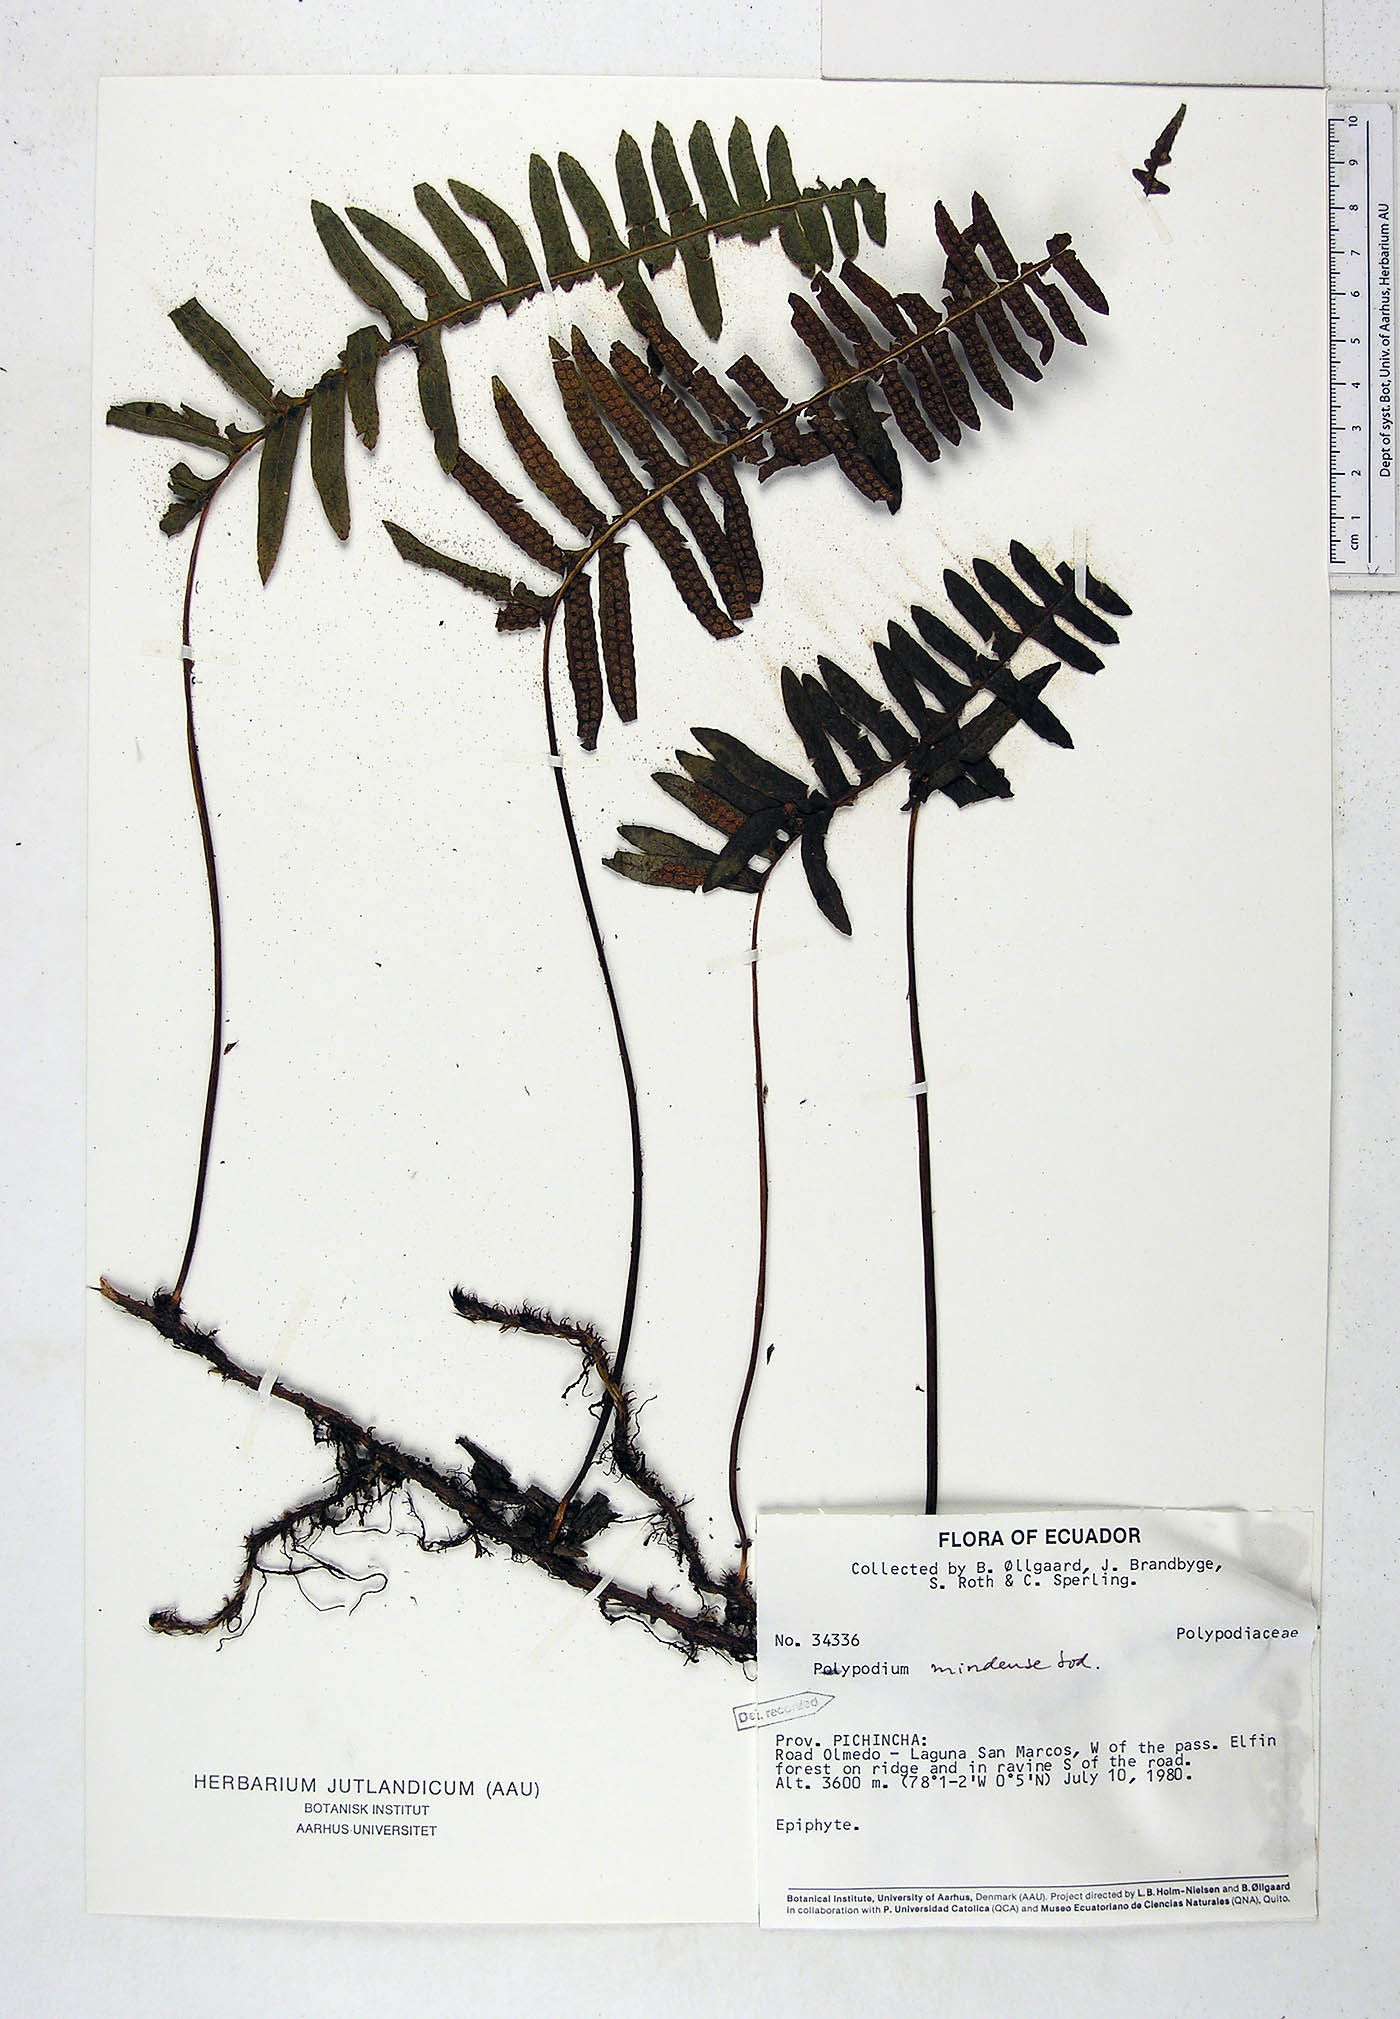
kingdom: Plantae
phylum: Tracheophyta
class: Polypodiopsida
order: Polypodiales
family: Polypodiaceae
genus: Serpocaulon
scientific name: Serpocaulon eleutherophlebium
